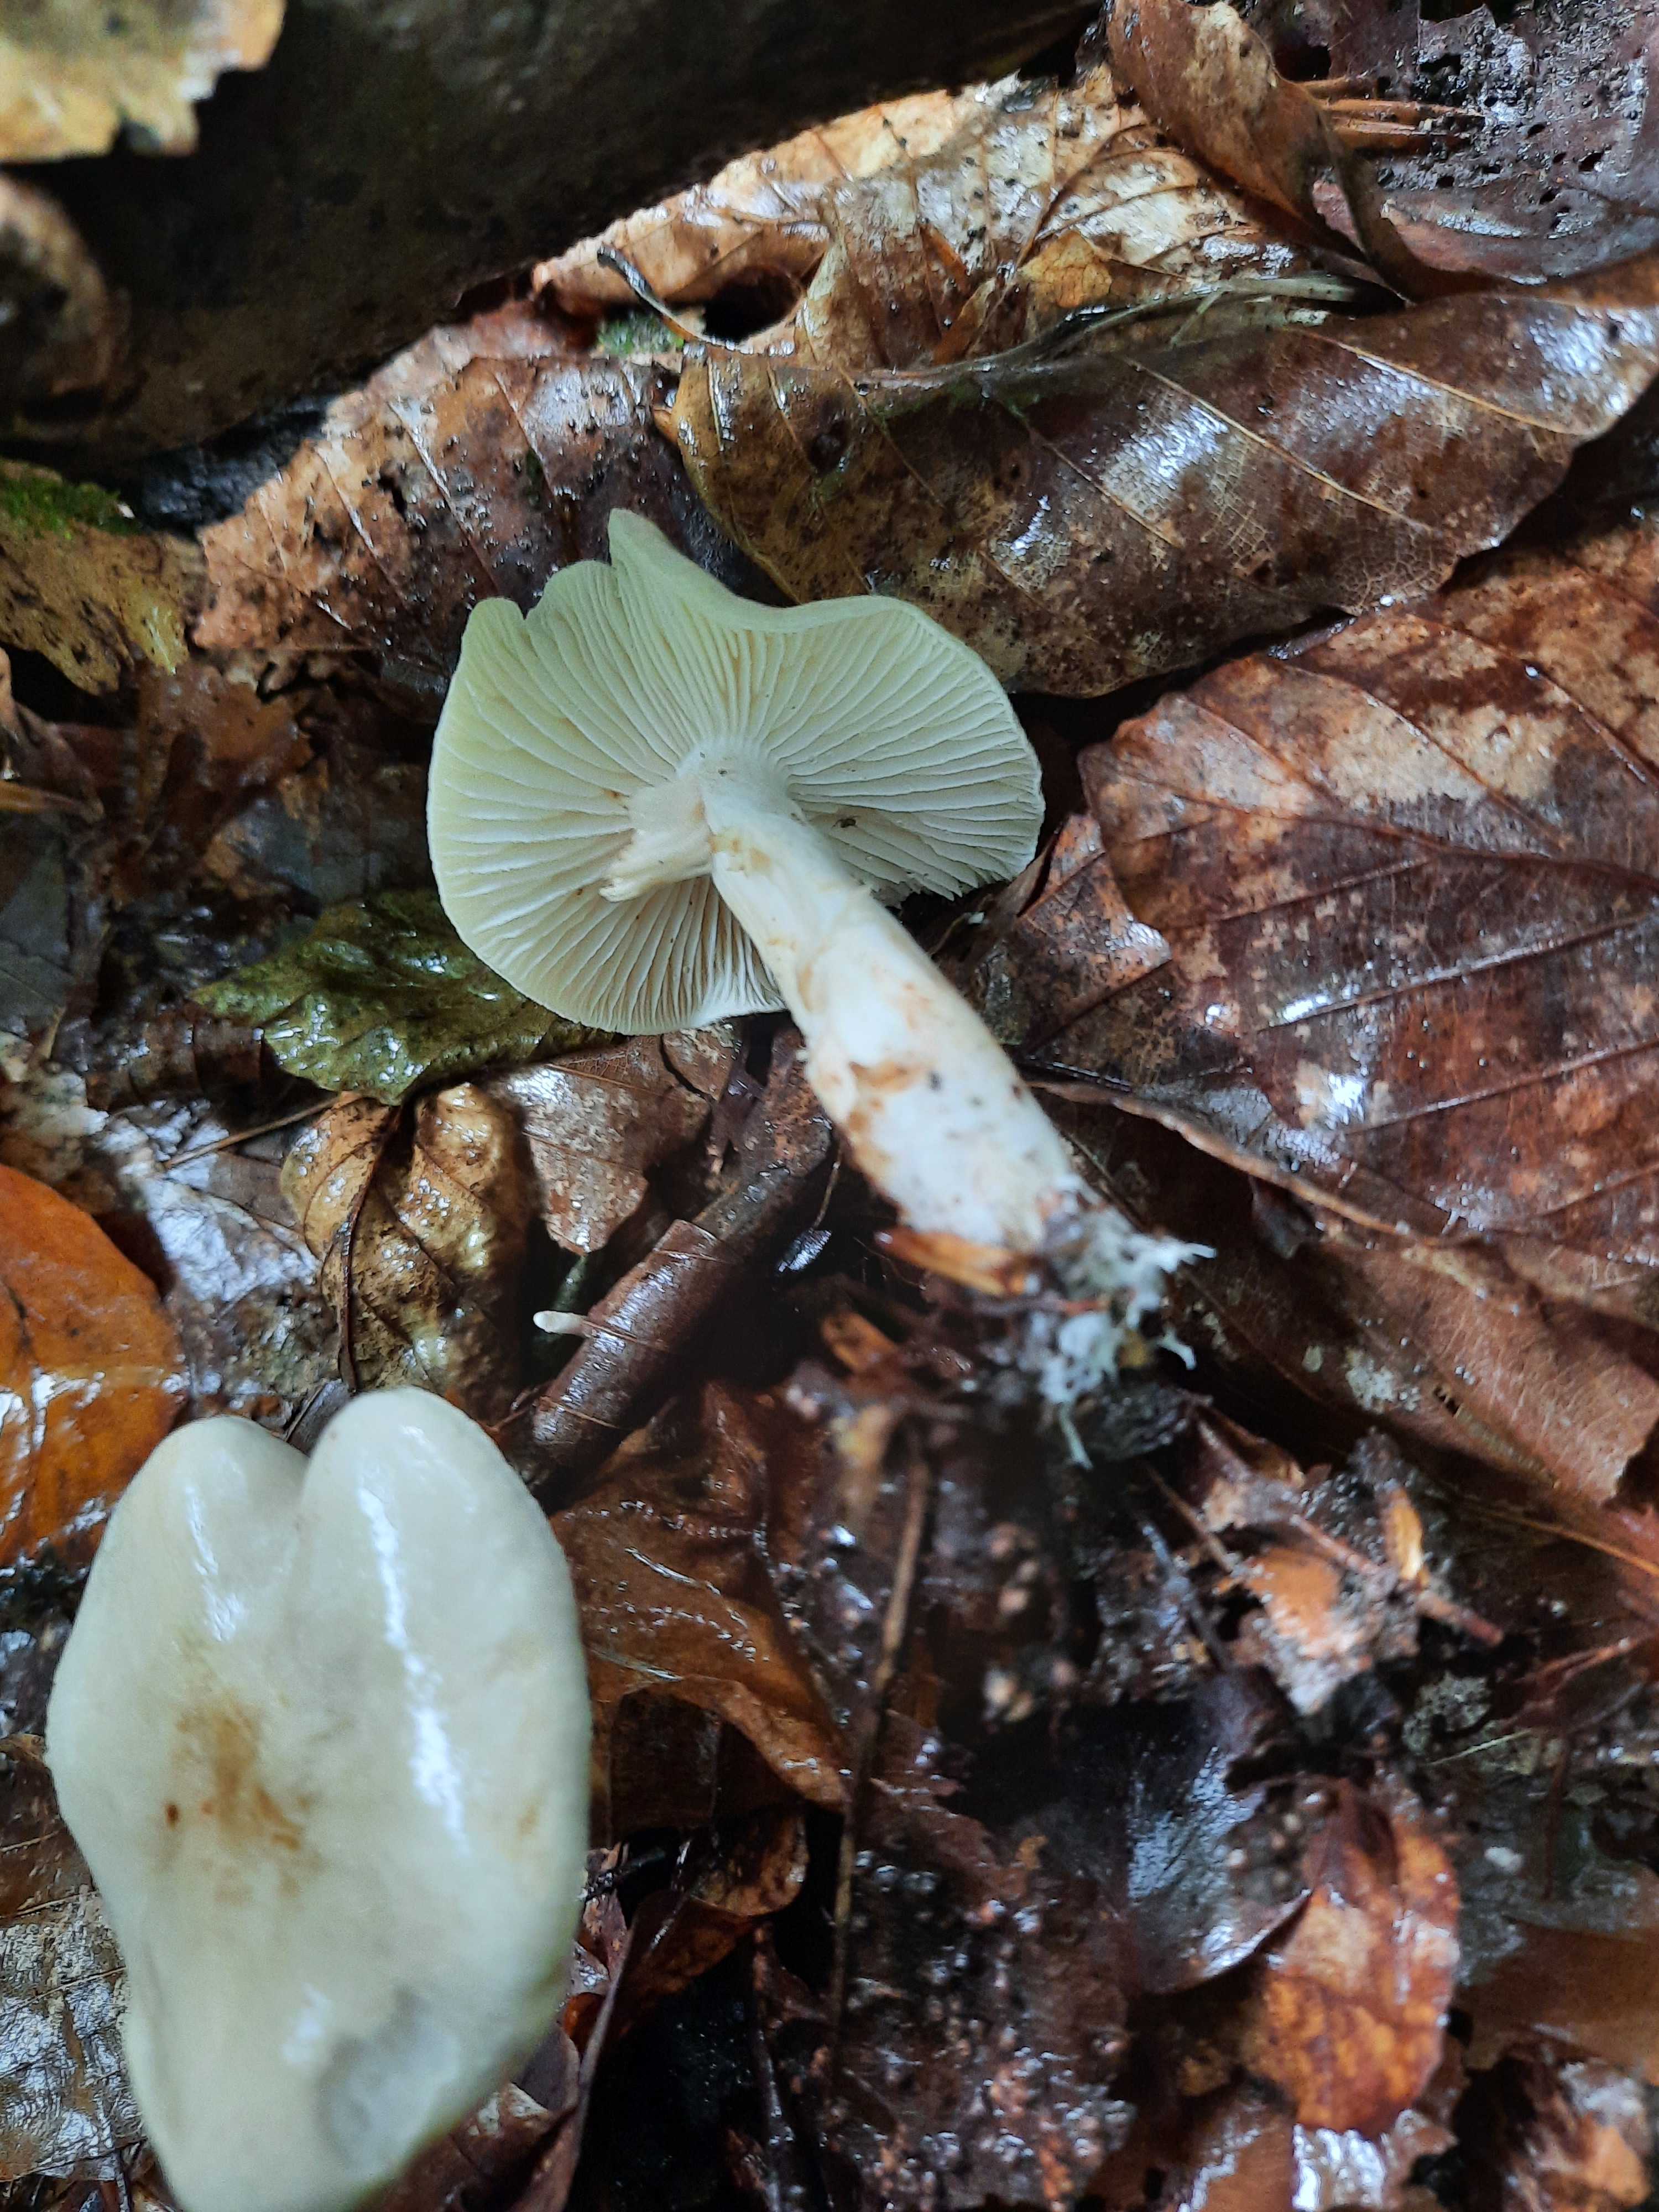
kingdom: Fungi
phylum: Basidiomycota
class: Agaricomycetes
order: Agaricales
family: Tricholomataceae
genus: Tricholoma
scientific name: Tricholoma lascivum
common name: stinkende ridderhat
